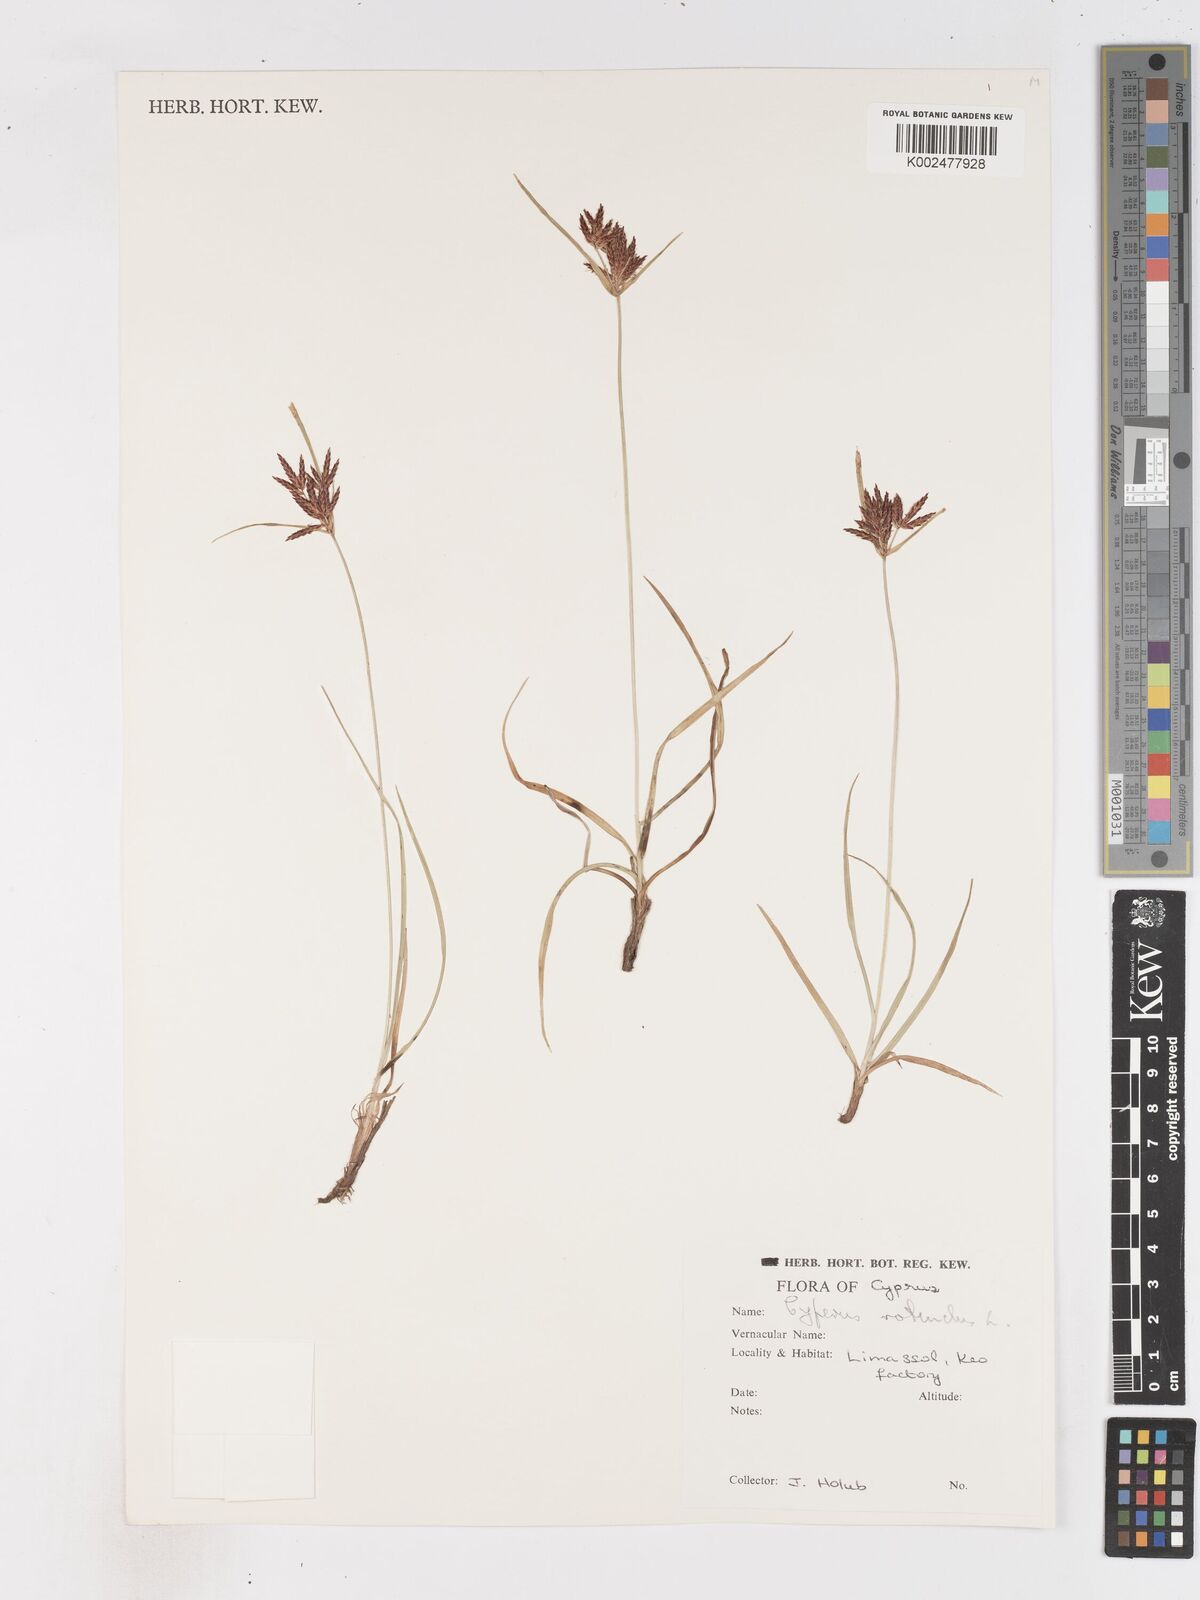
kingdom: Plantae
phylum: Tracheophyta
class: Liliopsida
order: Poales
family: Cyperaceae
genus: Cyperus
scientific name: Cyperus rotundus
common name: Nutgrass
